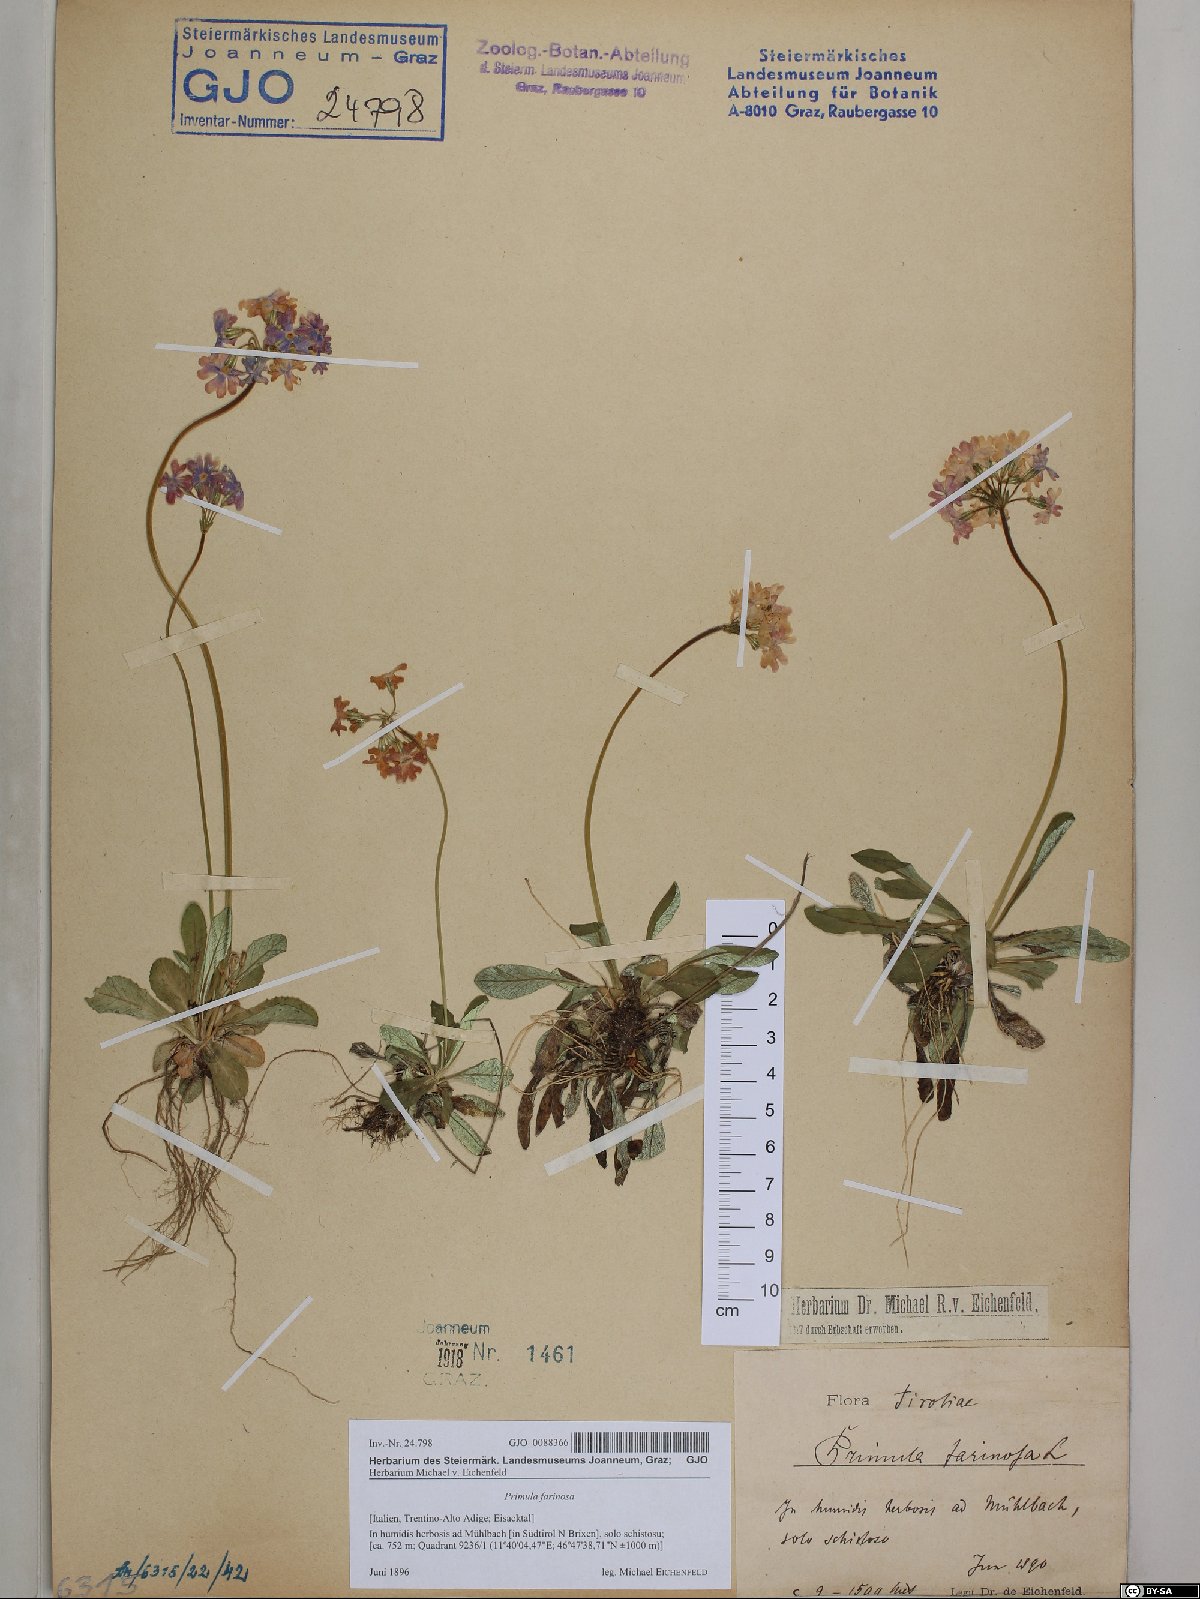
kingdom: Plantae
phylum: Tracheophyta
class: Magnoliopsida
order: Ericales
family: Primulaceae
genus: Primula
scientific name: Primula farinosa
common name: Bird's-eye primrose
